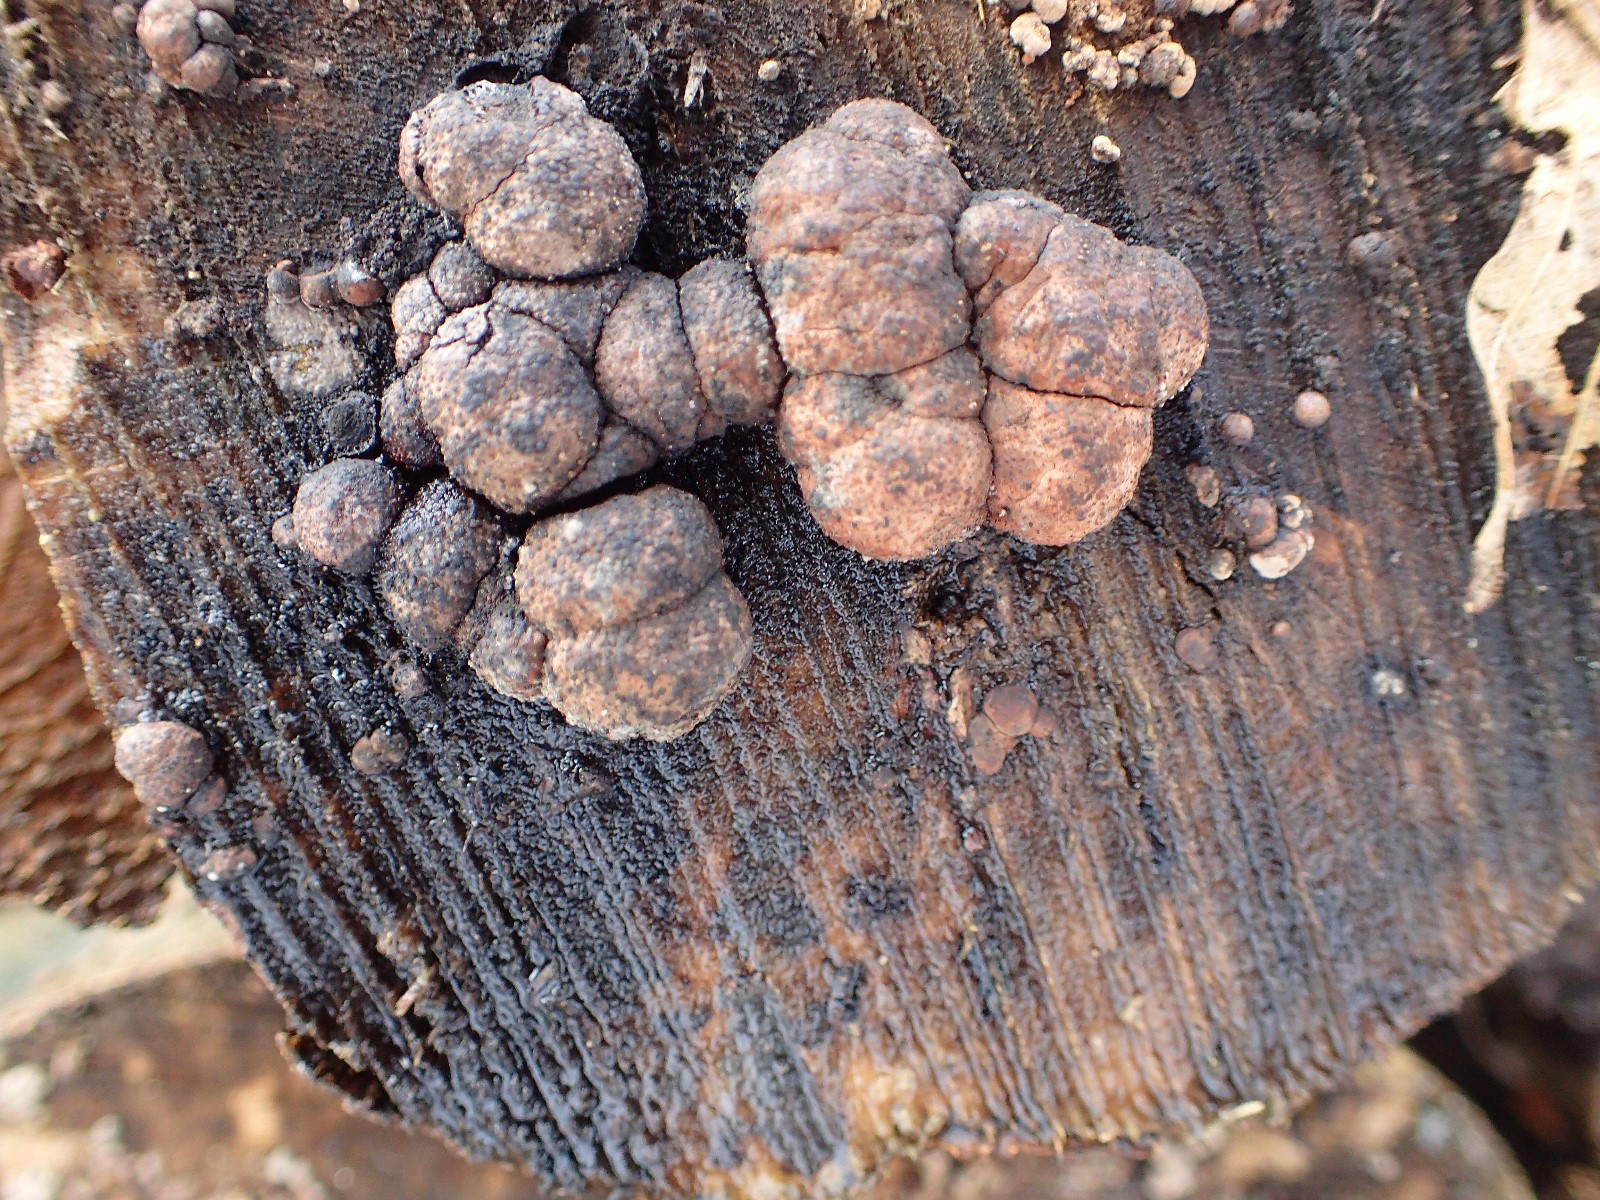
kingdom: Fungi
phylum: Ascomycota
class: Sordariomycetes
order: Xylariales
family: Hypoxylaceae
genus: Hypoxylon
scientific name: Hypoxylon fragiforme
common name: kuljordbær
